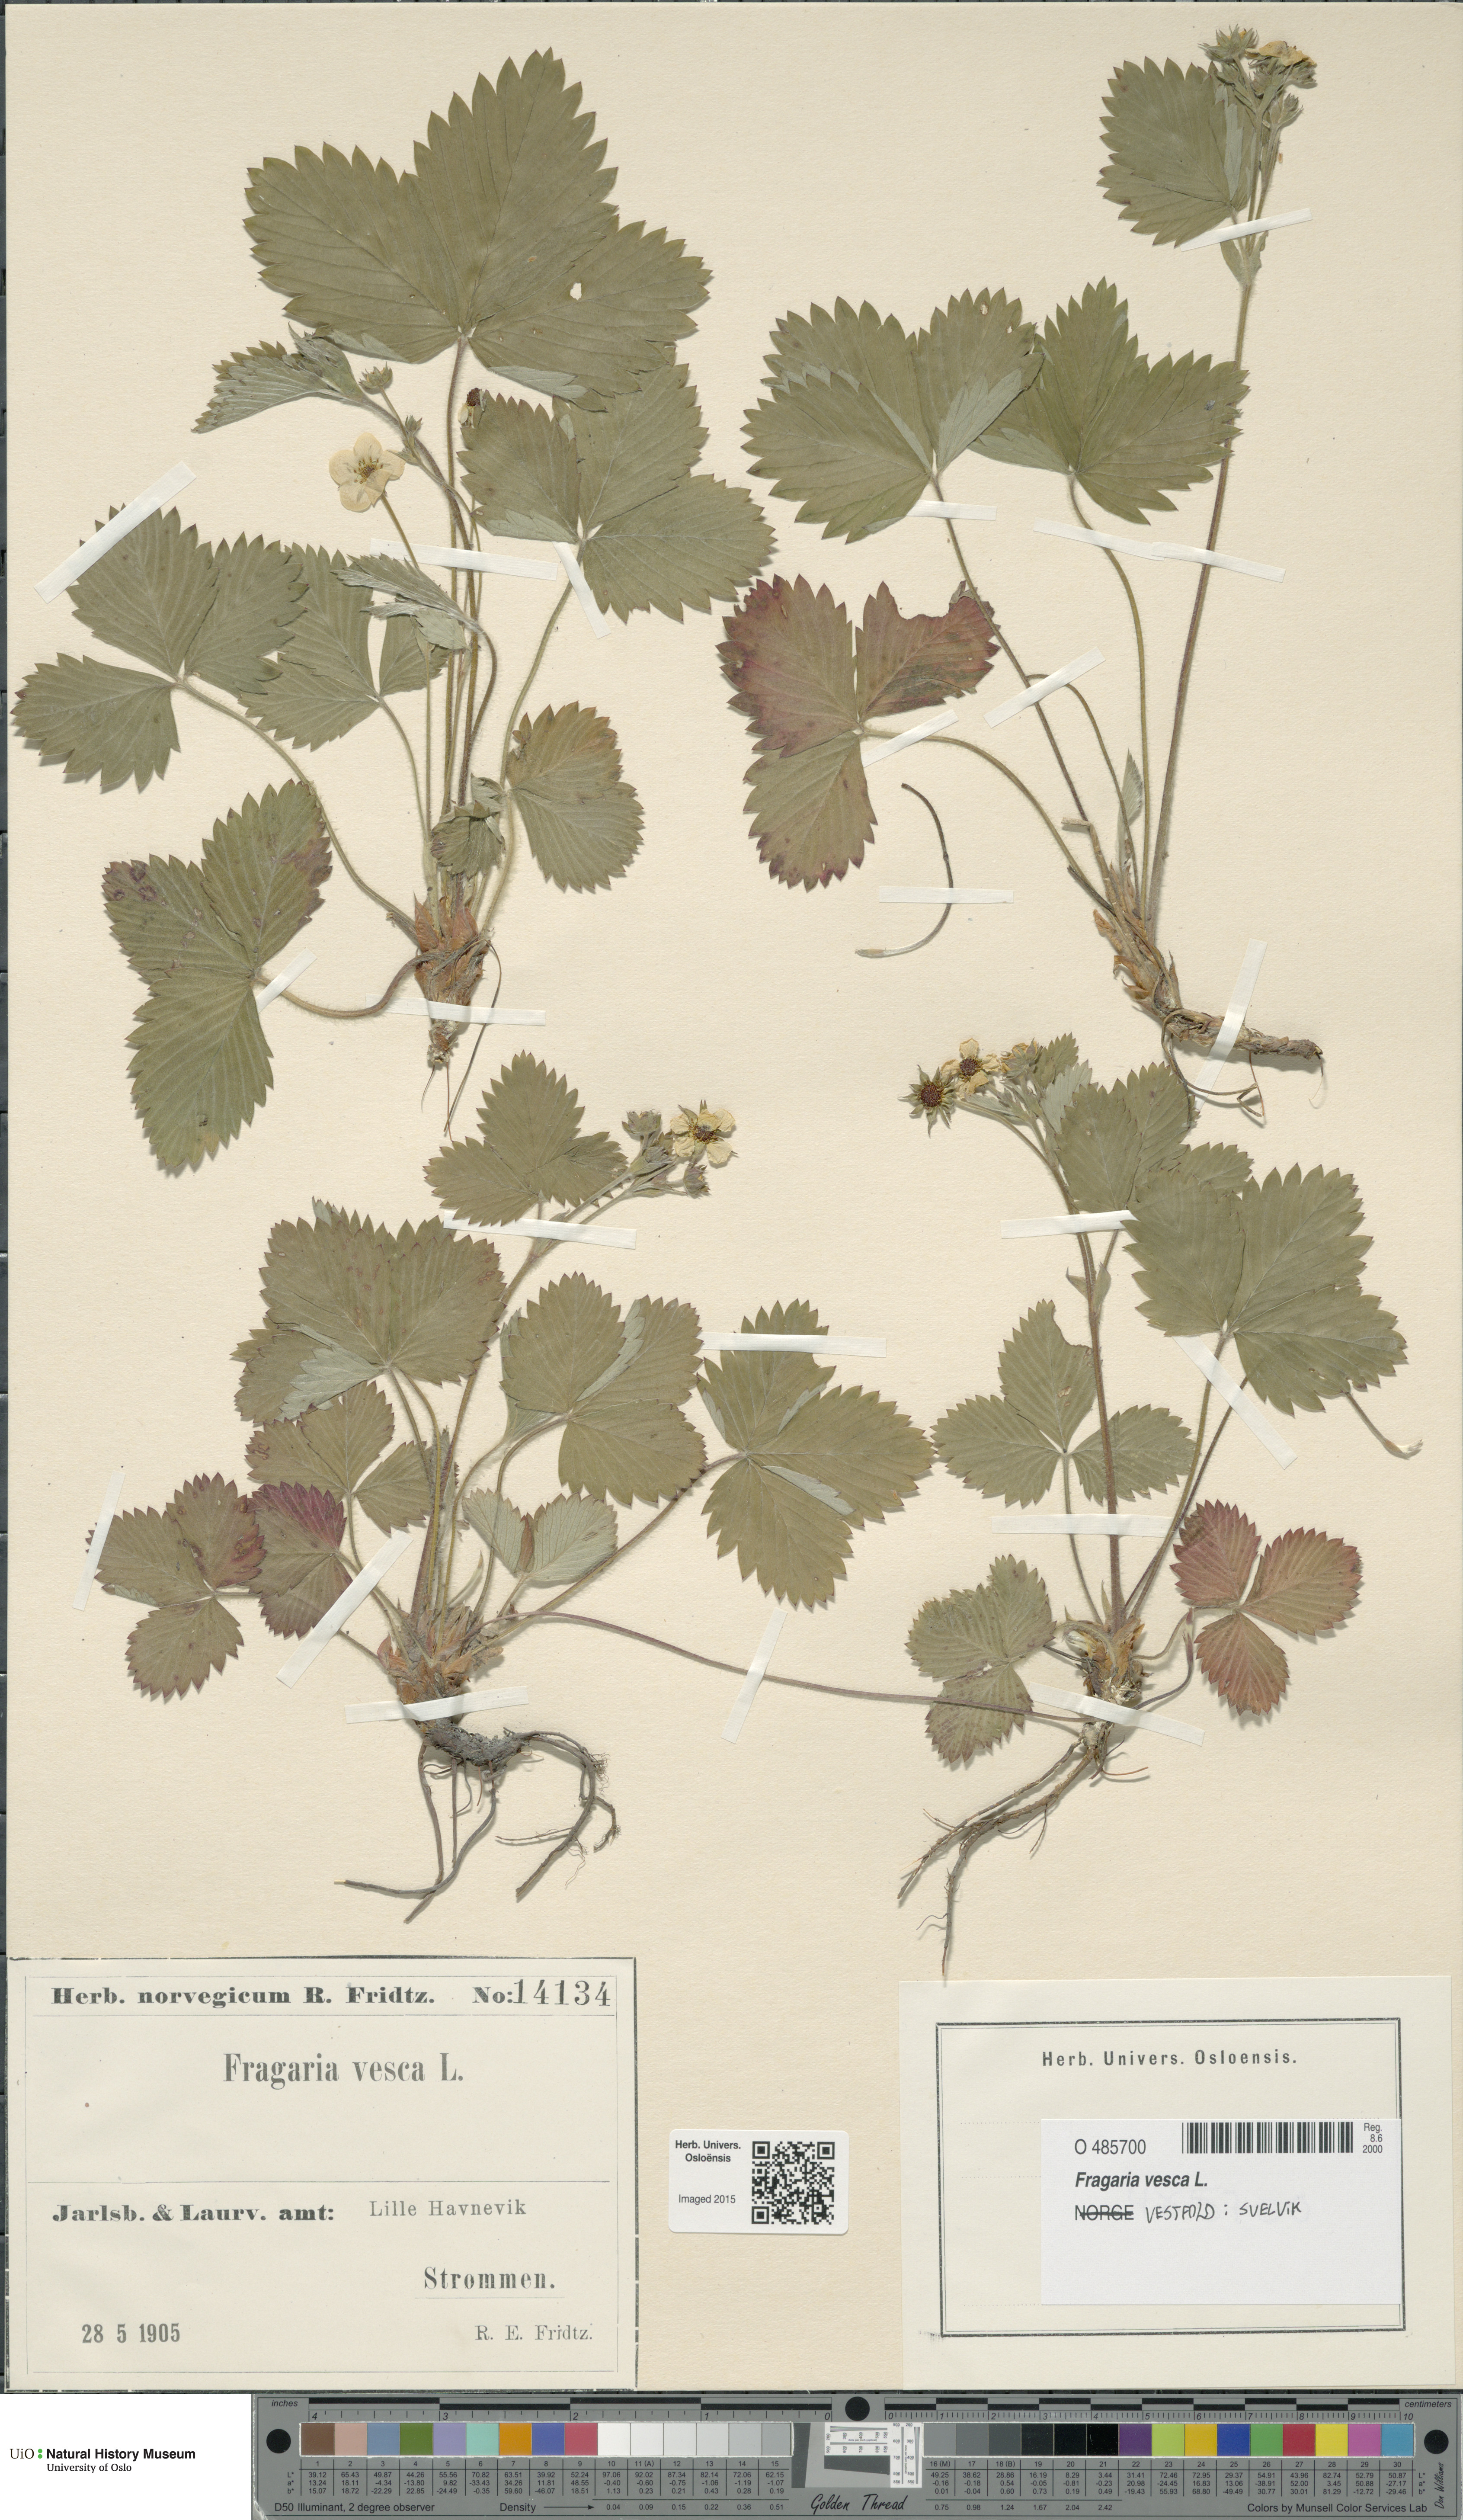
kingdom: Plantae
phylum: Tracheophyta
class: Magnoliopsida
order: Rosales
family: Rosaceae
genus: Fragaria
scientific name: Fragaria vesca
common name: Wild strawberry
